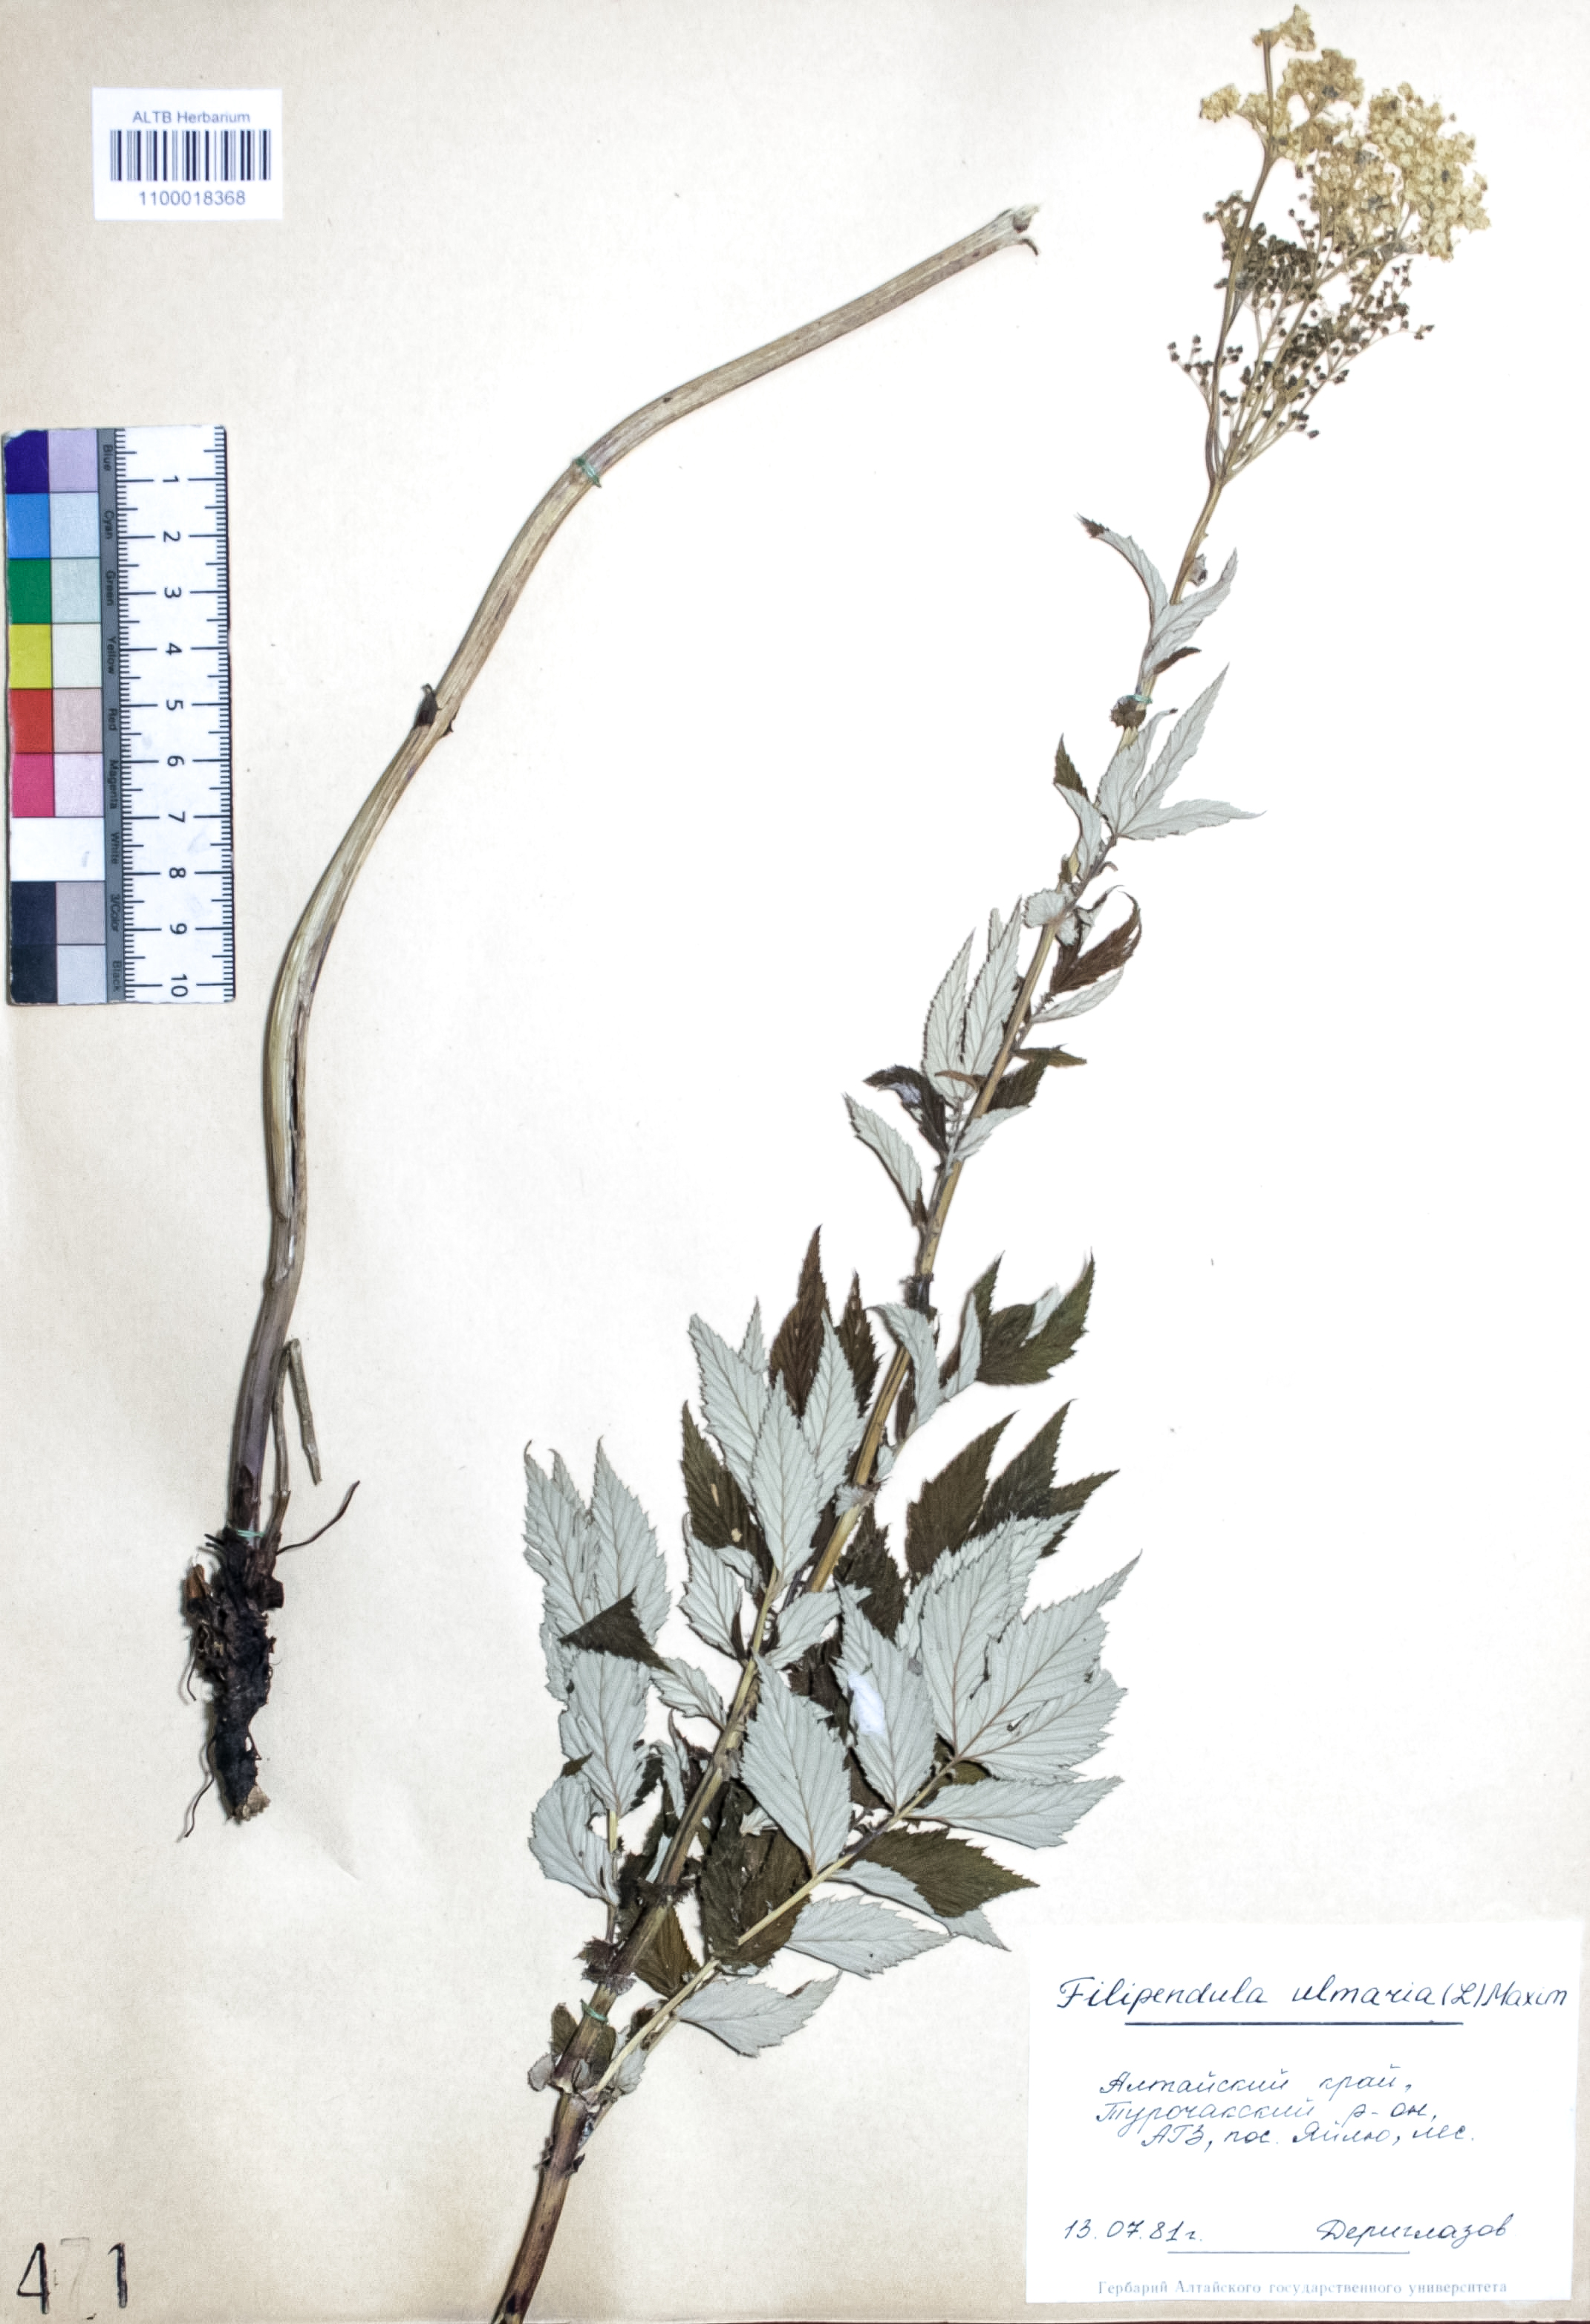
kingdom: Plantae
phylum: Tracheophyta
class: Magnoliopsida
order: Rosales
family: Rosaceae
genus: Filipendula
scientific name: Filipendula ulmaria
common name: Meadowsweet
